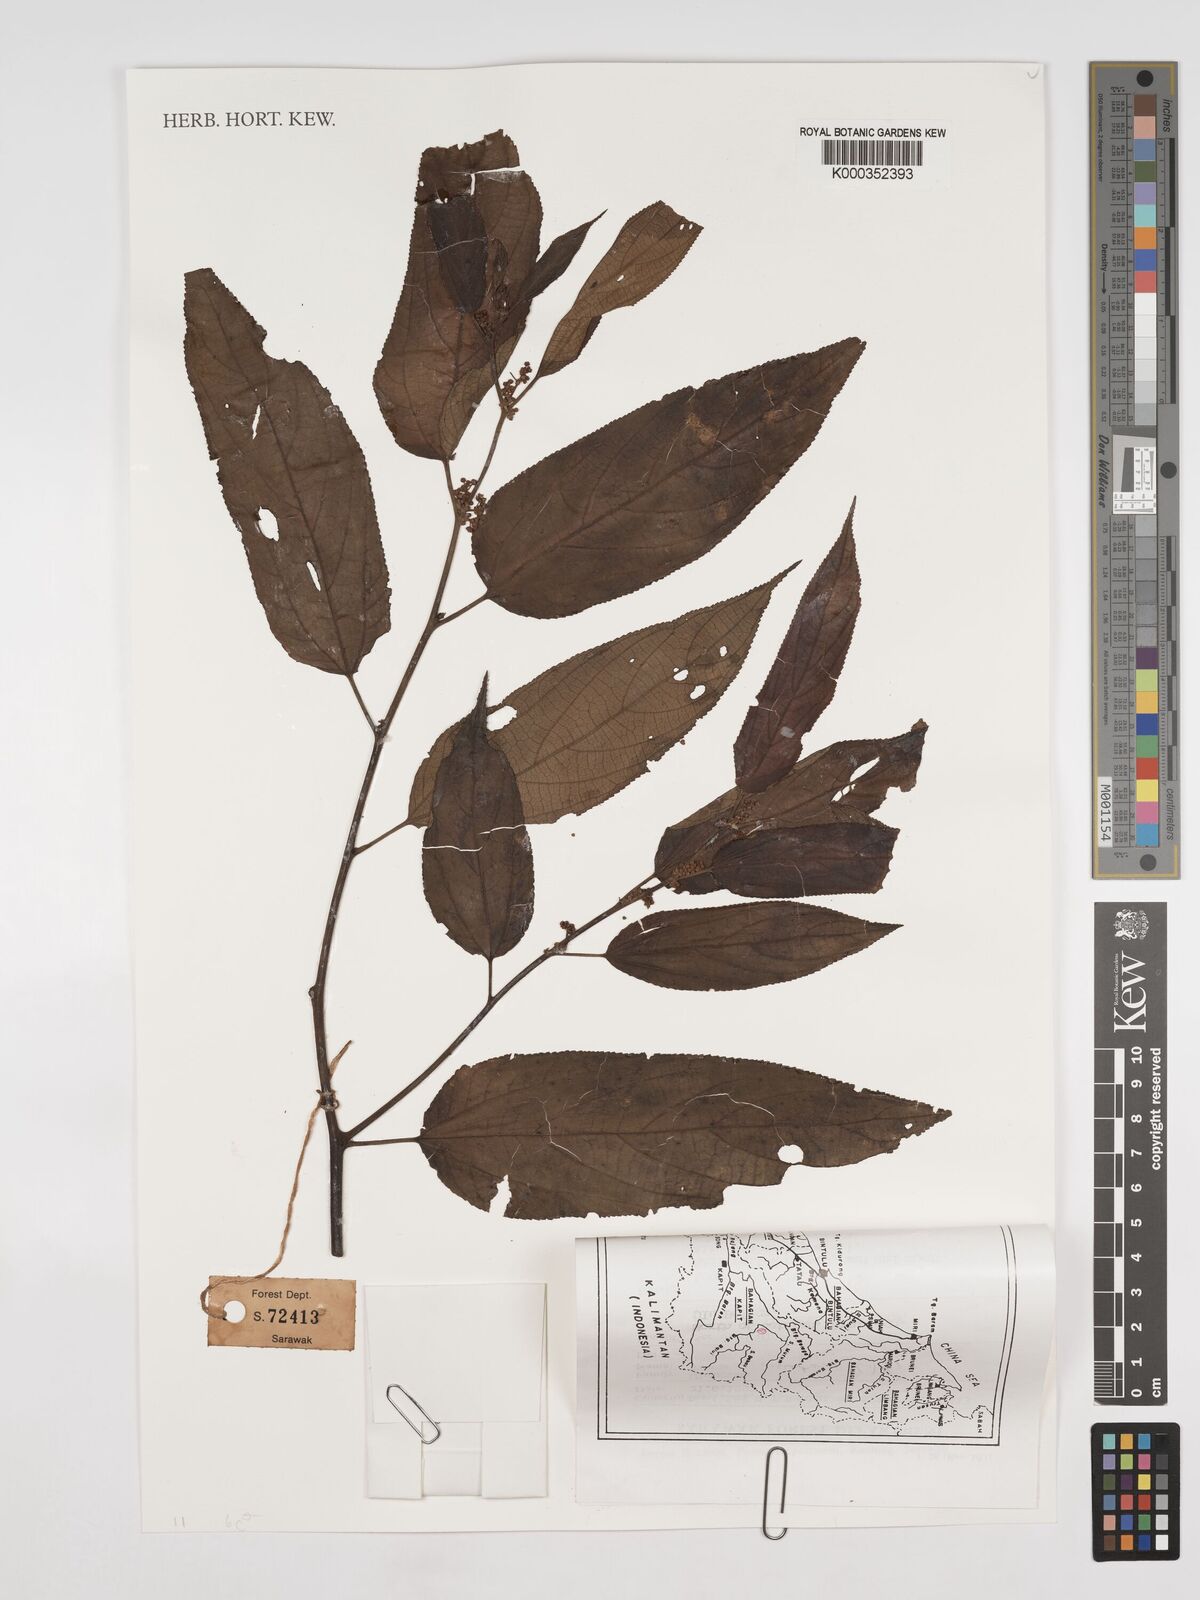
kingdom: Plantae
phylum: Tracheophyta
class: Magnoliopsida
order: Rosales
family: Cannabaceae
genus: Trema
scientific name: Trema
